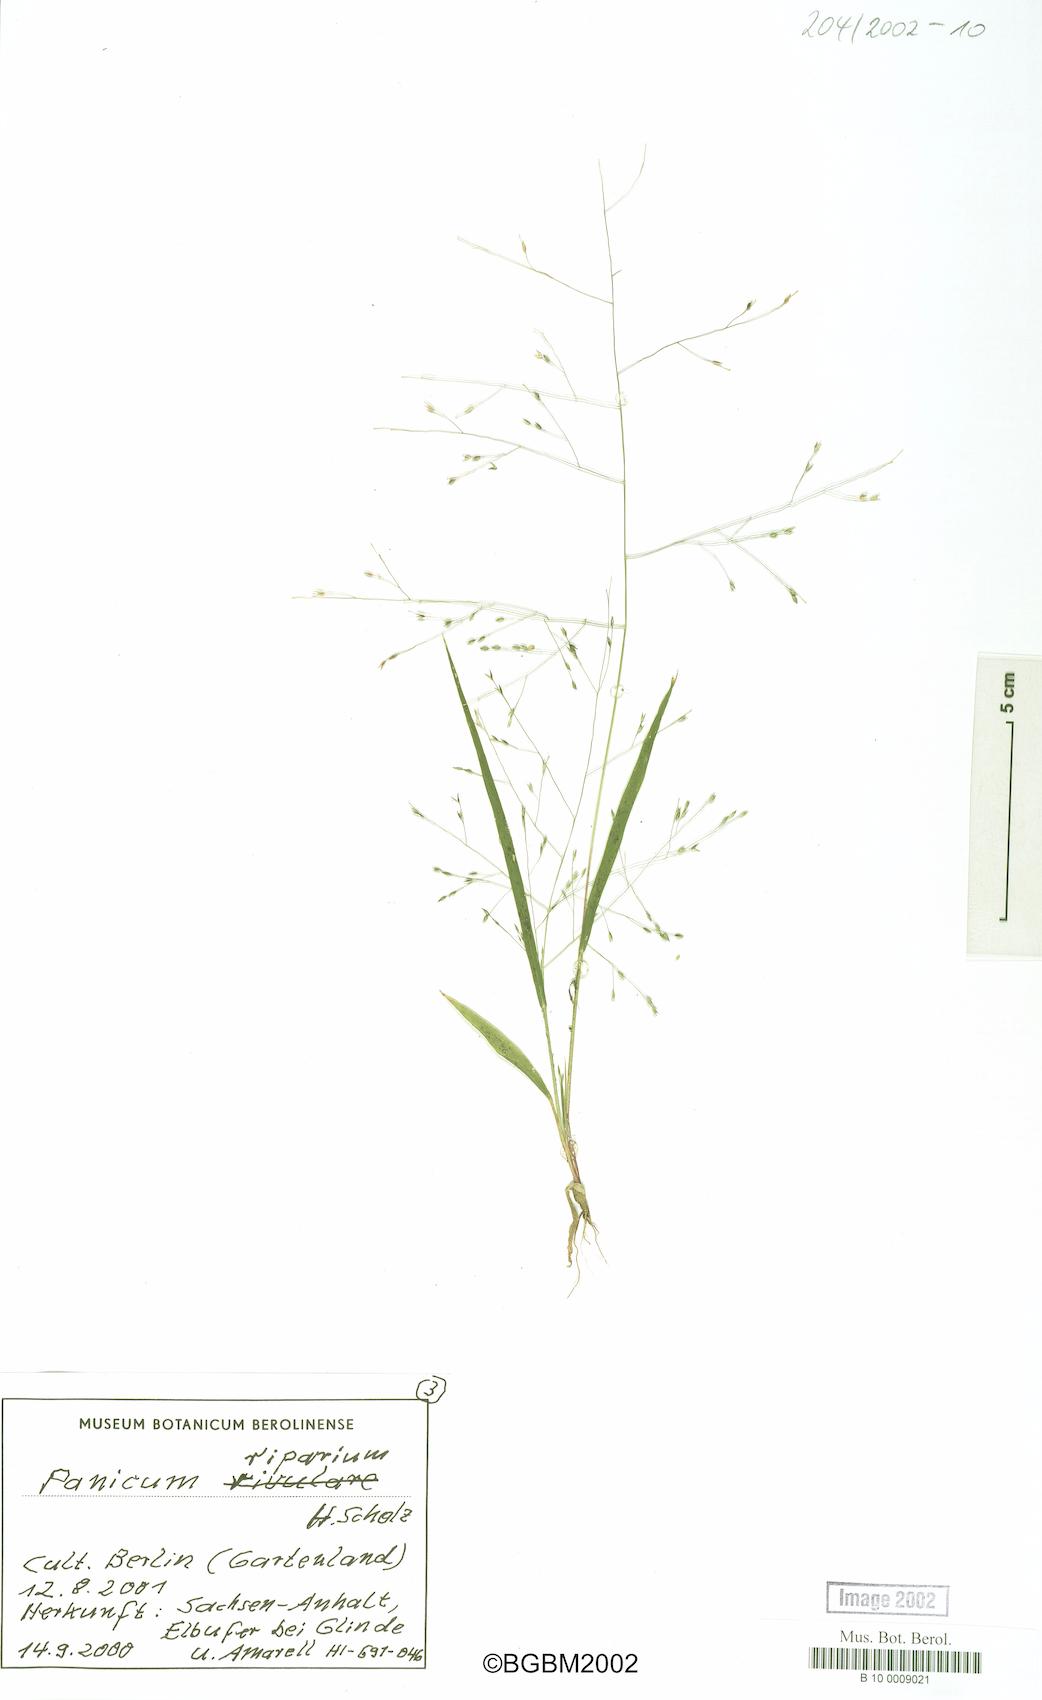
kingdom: Plantae
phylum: Tracheophyta
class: Liliopsida
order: Poales
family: Poaceae
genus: Panicum
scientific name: Panicum capillare
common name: Witch-grass
